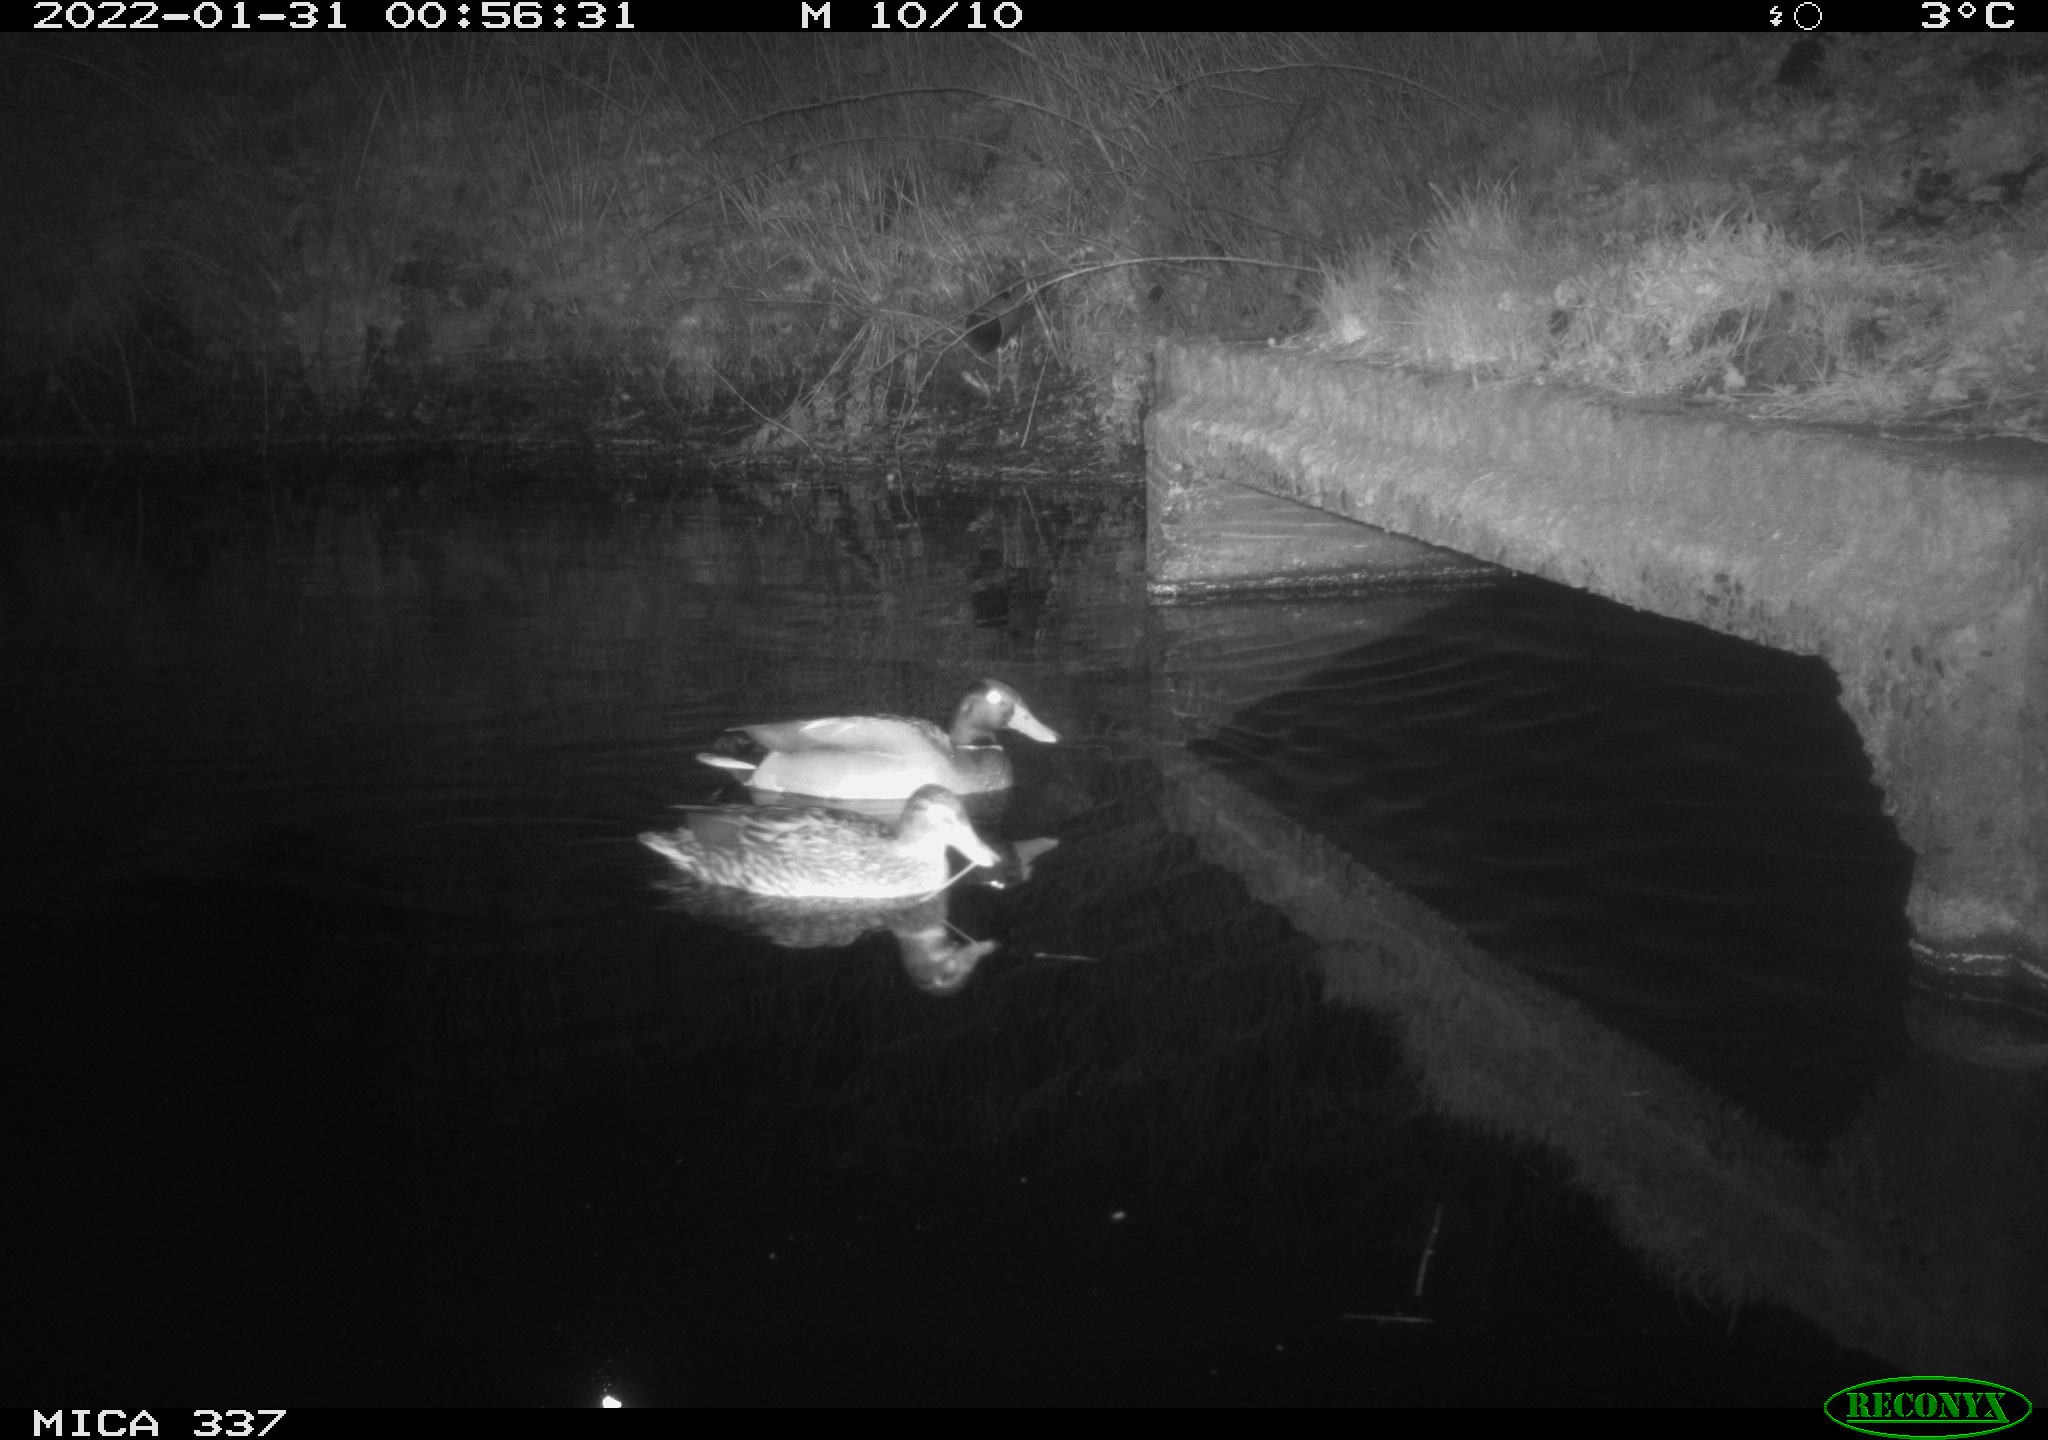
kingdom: Animalia
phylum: Chordata
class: Aves
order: Anseriformes
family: Anatidae
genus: Anas
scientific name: Anas platyrhynchos
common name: Mallard
